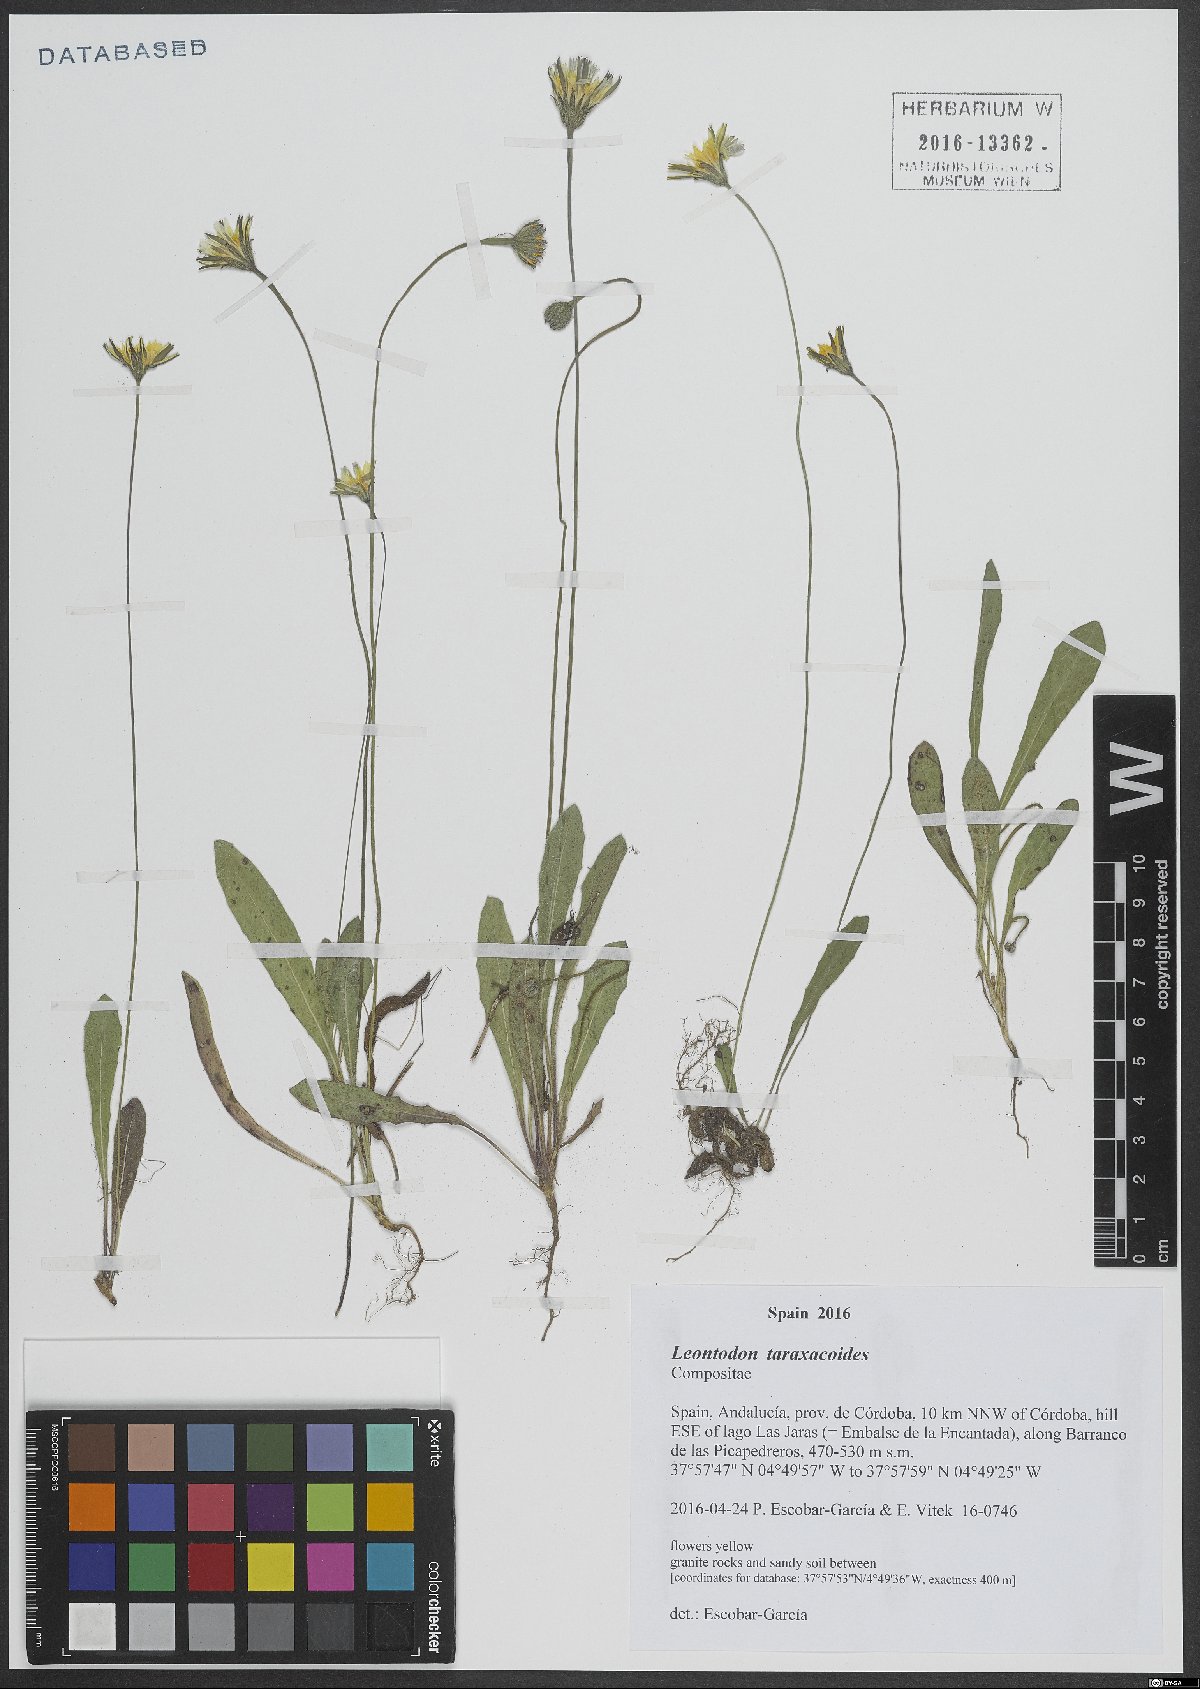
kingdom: Plantae
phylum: Tracheophyta
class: Magnoliopsida
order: Asterales
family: Asteraceae
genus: Thrincia
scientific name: Thrincia saxatilis
